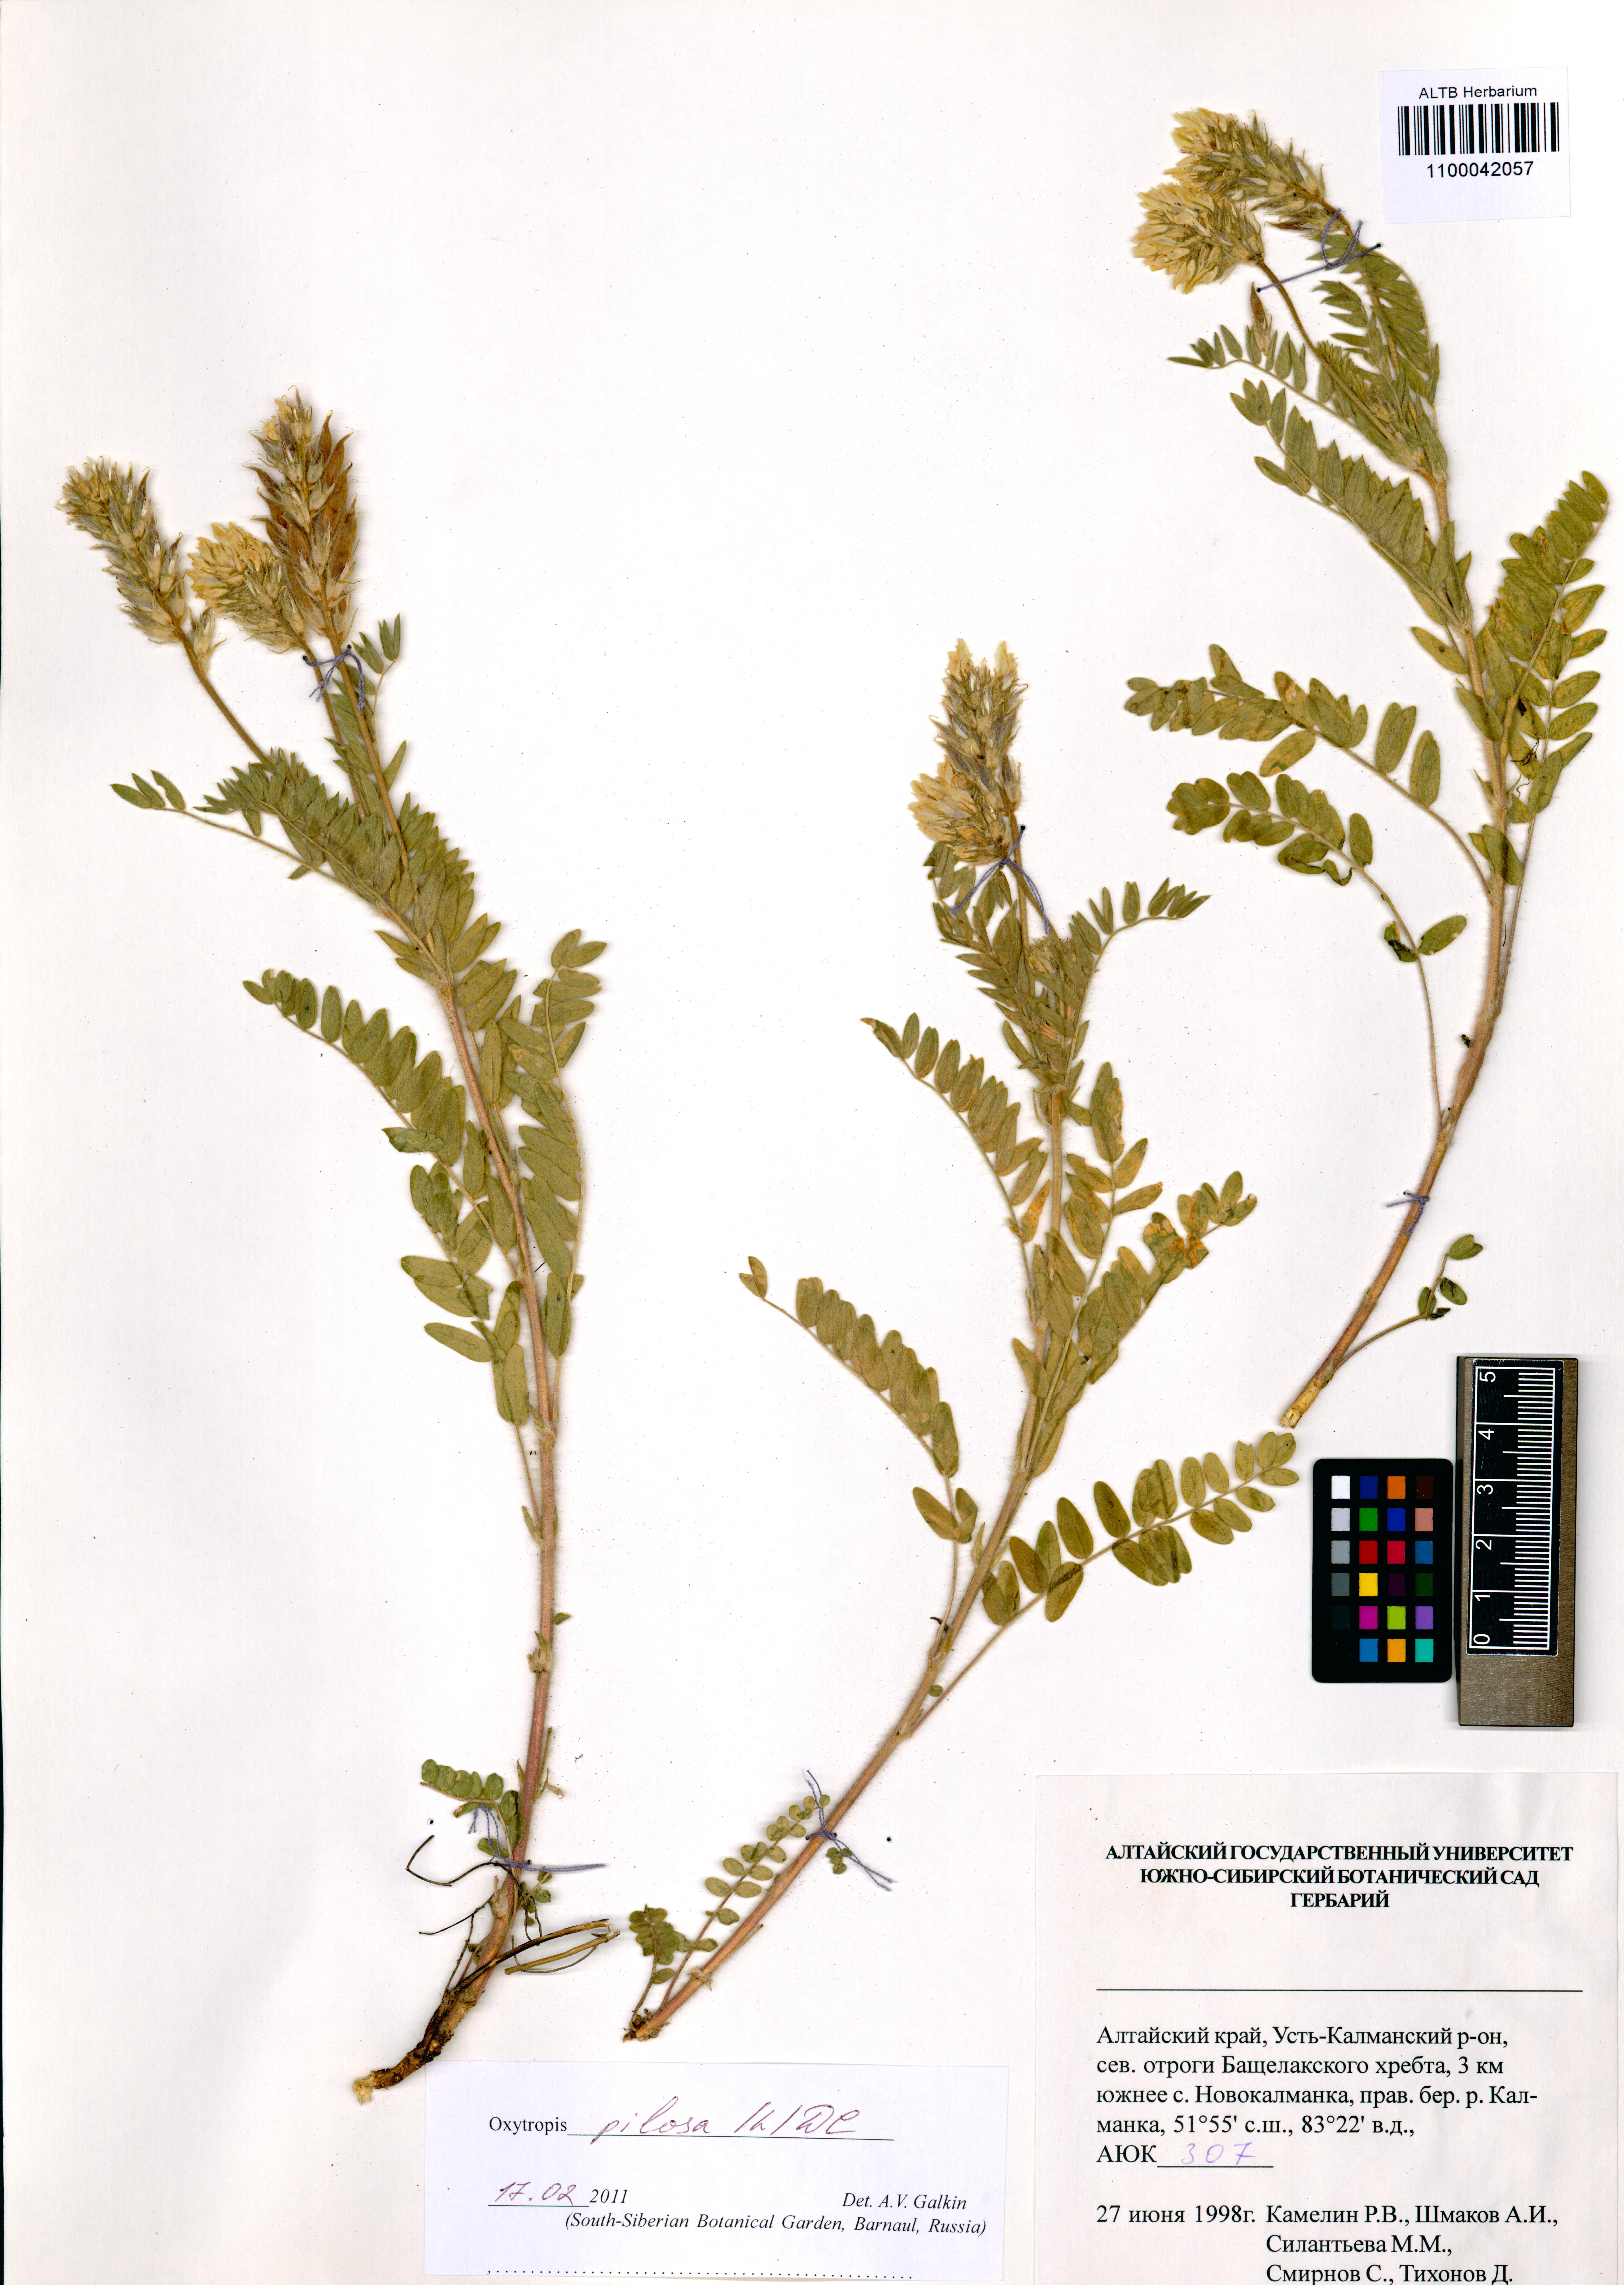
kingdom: Plantae
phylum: Tracheophyta
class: Magnoliopsida
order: Fabales
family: Fabaceae
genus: Oxytropis
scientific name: Oxytropis pilosa
